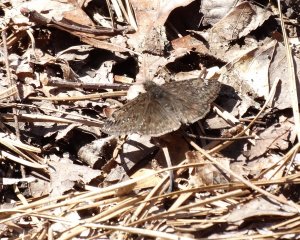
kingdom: Animalia
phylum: Arthropoda
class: Insecta
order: Lepidoptera
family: Hesperiidae
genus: Gesta
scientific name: Gesta
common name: Juvenal's Duskywing
